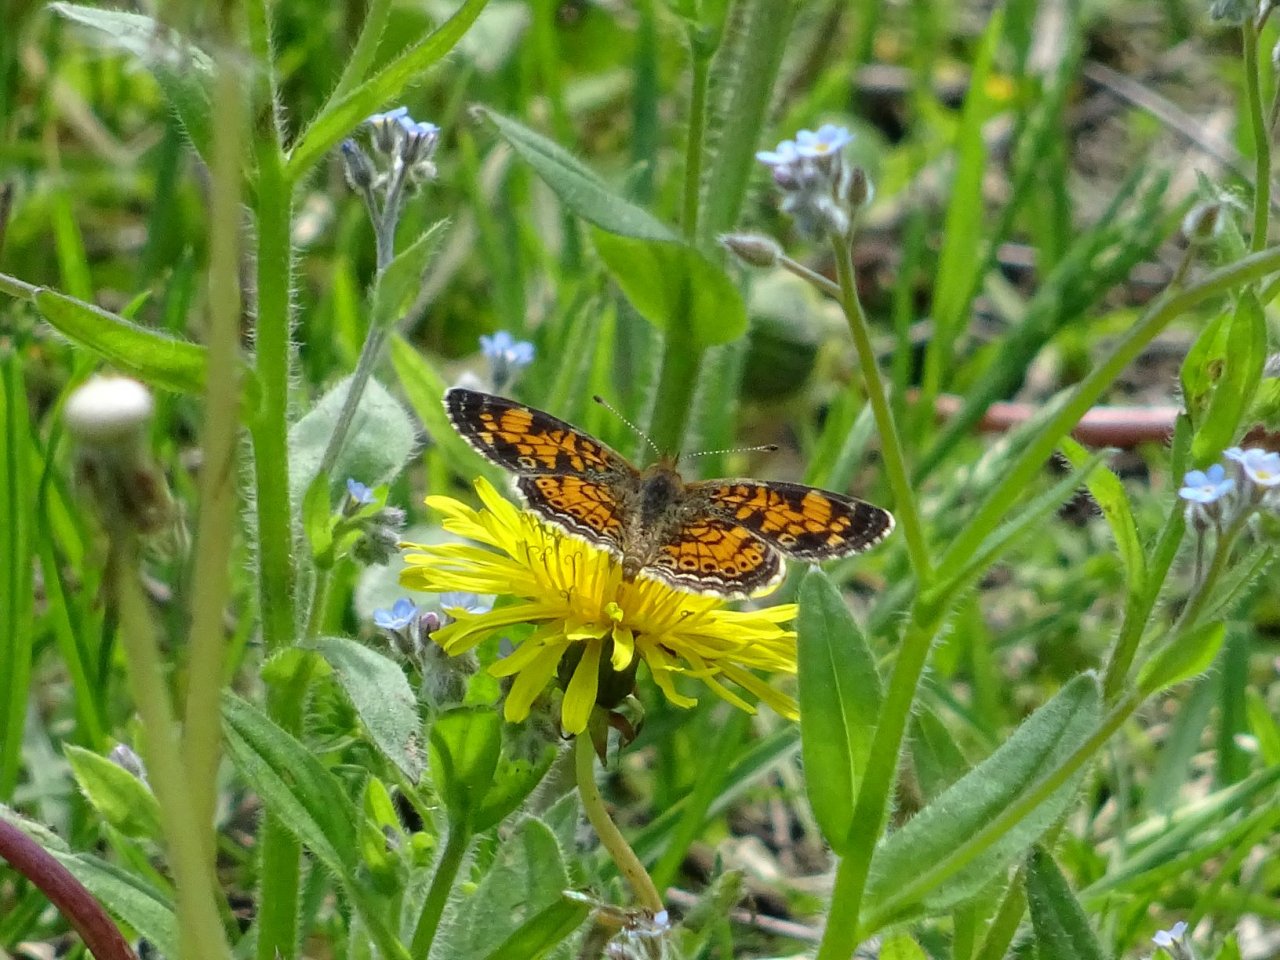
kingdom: Animalia
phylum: Arthropoda
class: Insecta
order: Lepidoptera
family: Nymphalidae
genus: Phyciodes
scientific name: Phyciodes tharos
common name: Pearl Crescent
